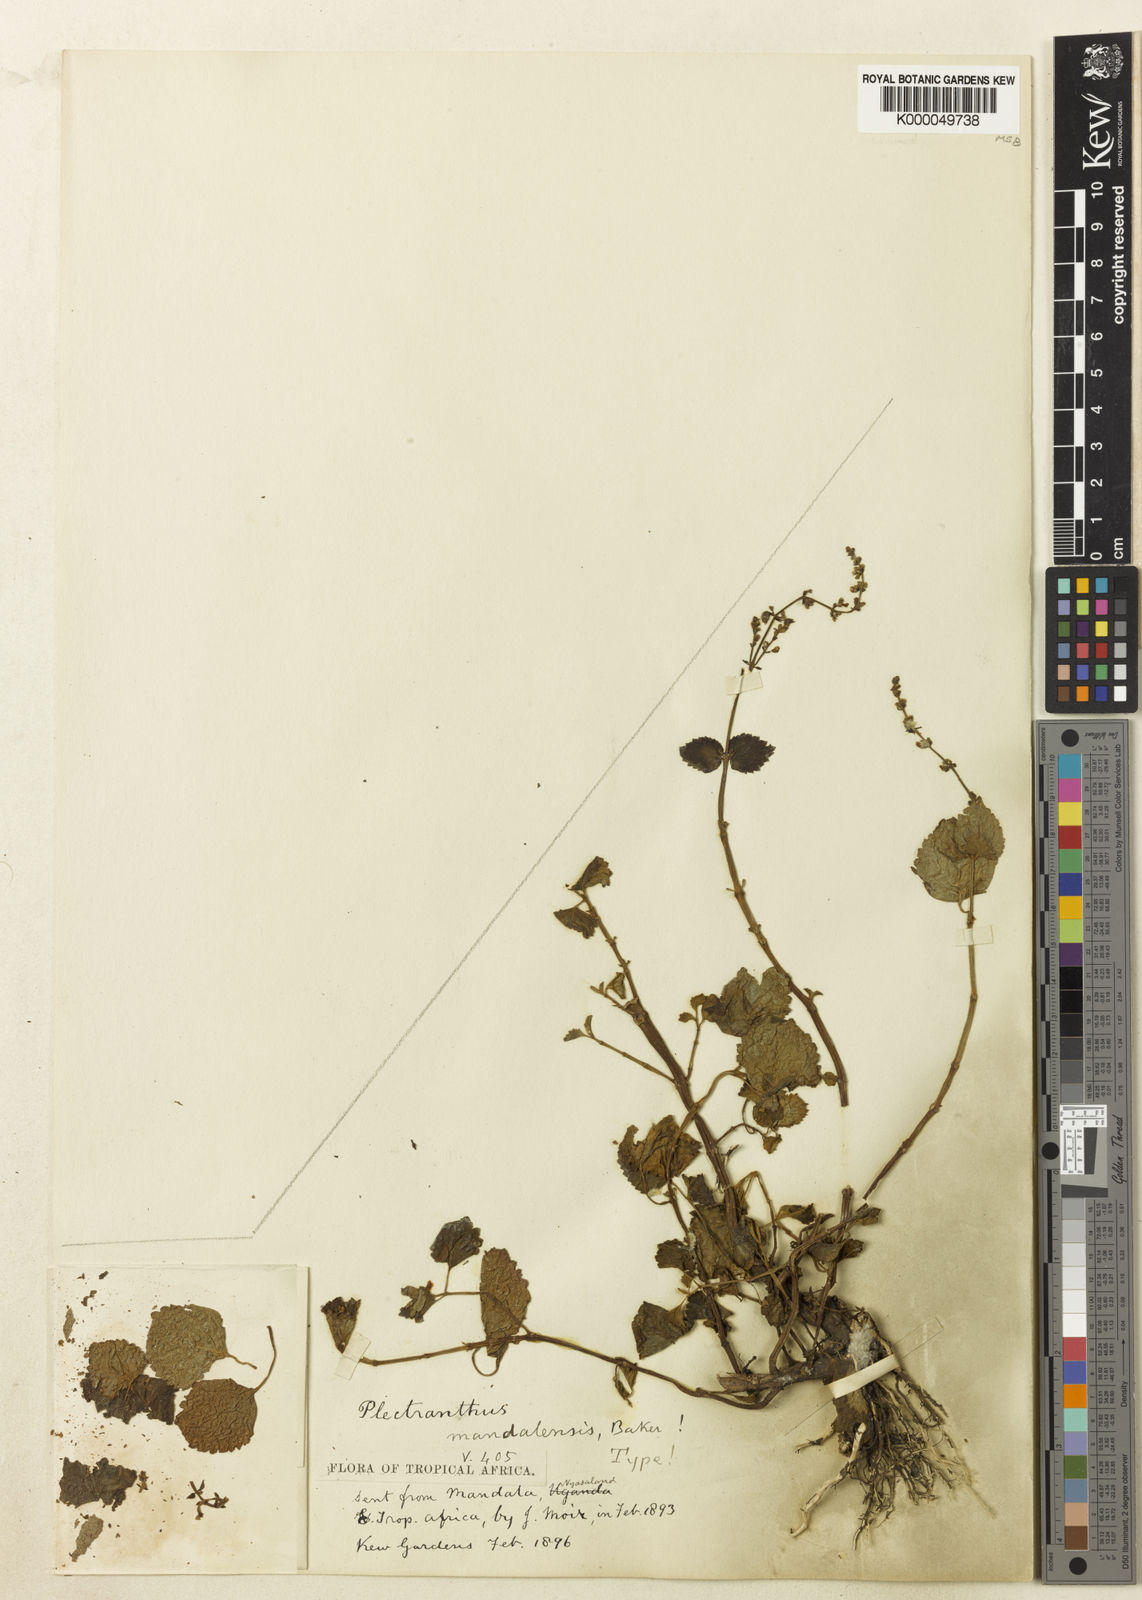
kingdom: Plantae
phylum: Tracheophyta
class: Magnoliopsida
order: Lamiales
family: Lamiaceae
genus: Plectranthus
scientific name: Plectranthus mandalensis
